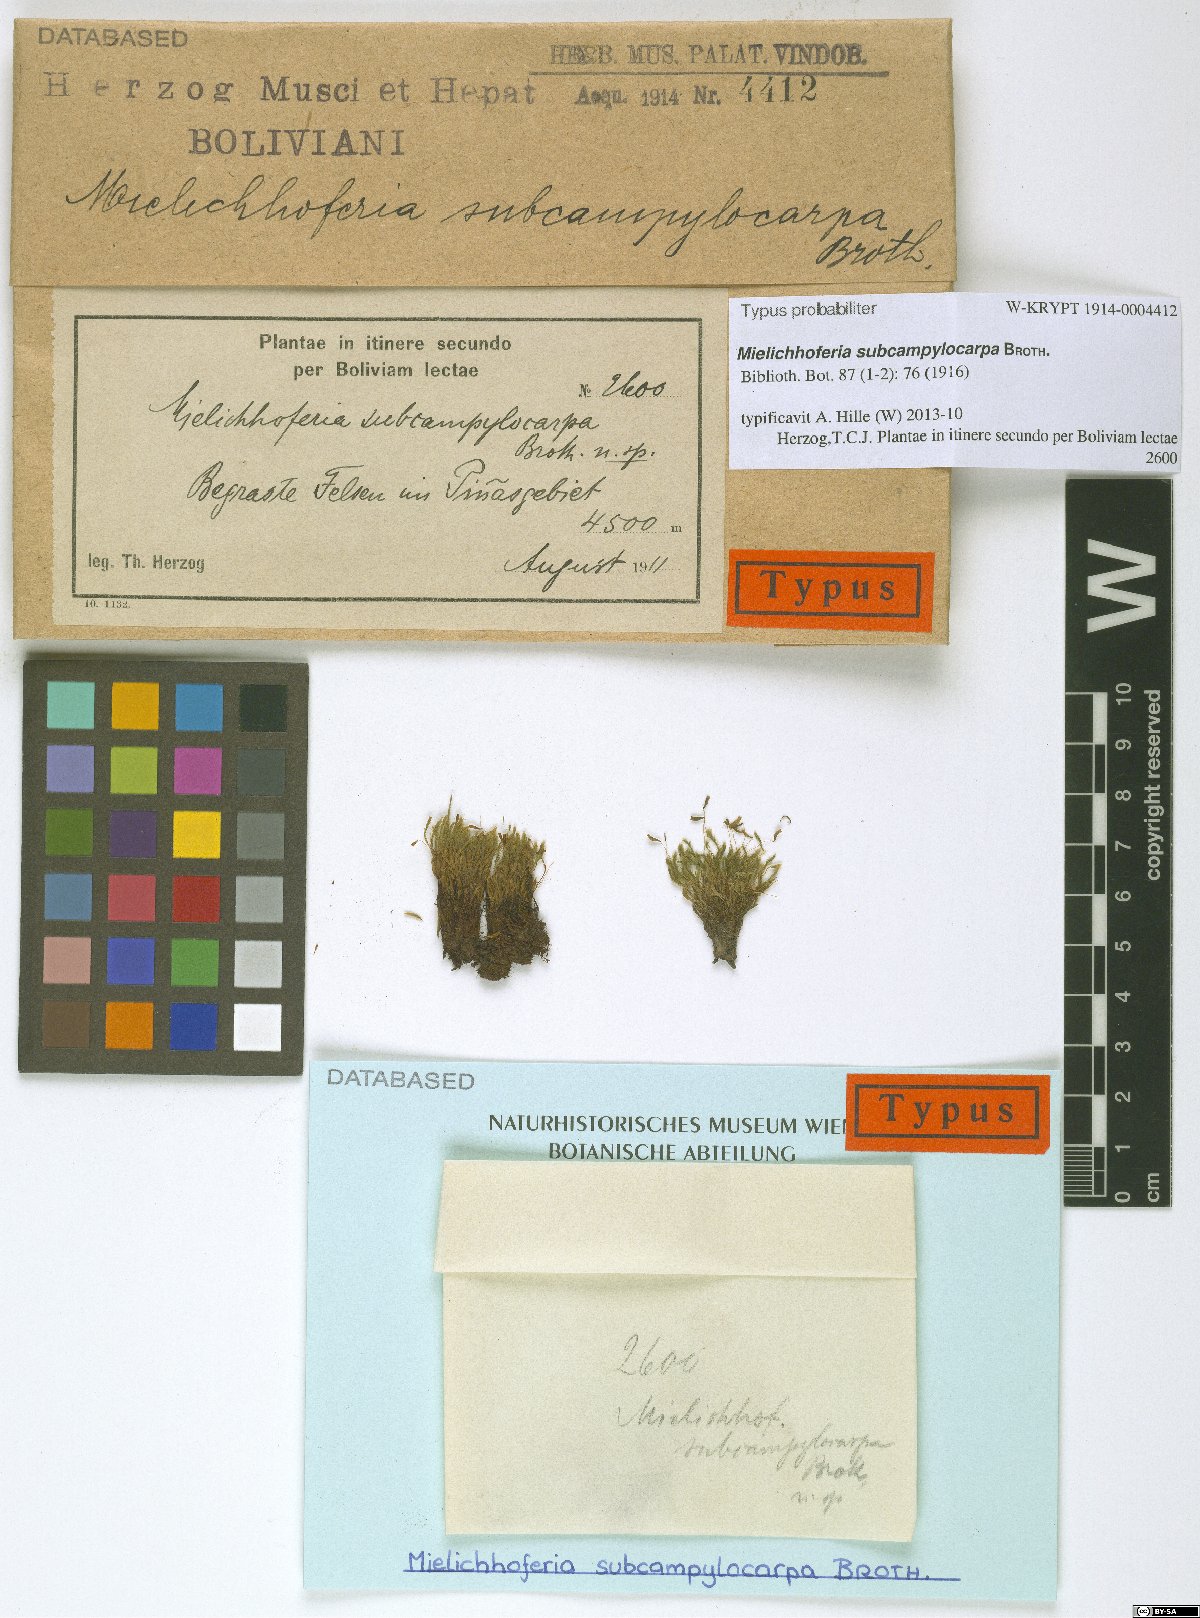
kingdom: Plantae
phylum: Bryophyta
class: Bryopsida
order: Bryales
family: Mniaceae
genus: Schizymenium
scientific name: Schizymenium campylocarpum
